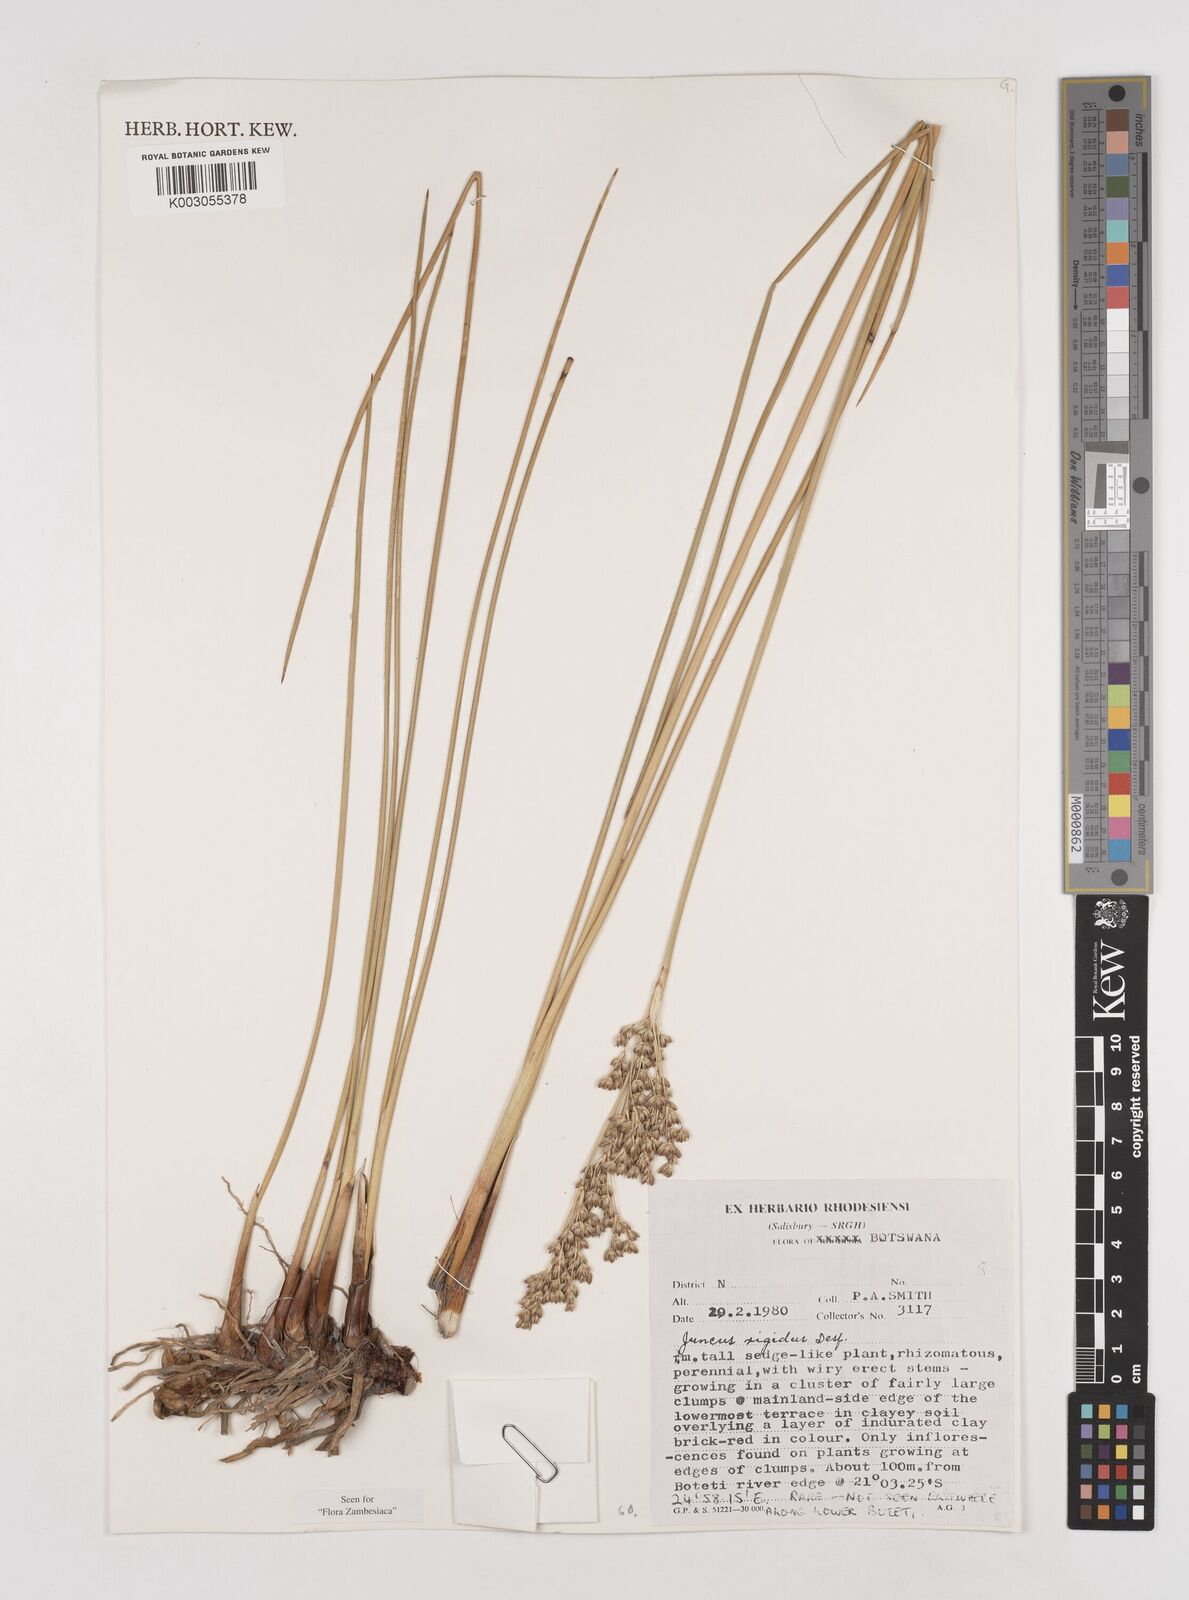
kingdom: Plantae
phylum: Tracheophyta
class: Liliopsida
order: Poales
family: Juncaceae
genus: Juncus
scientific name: Juncus rigidus
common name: Hard sea rush
